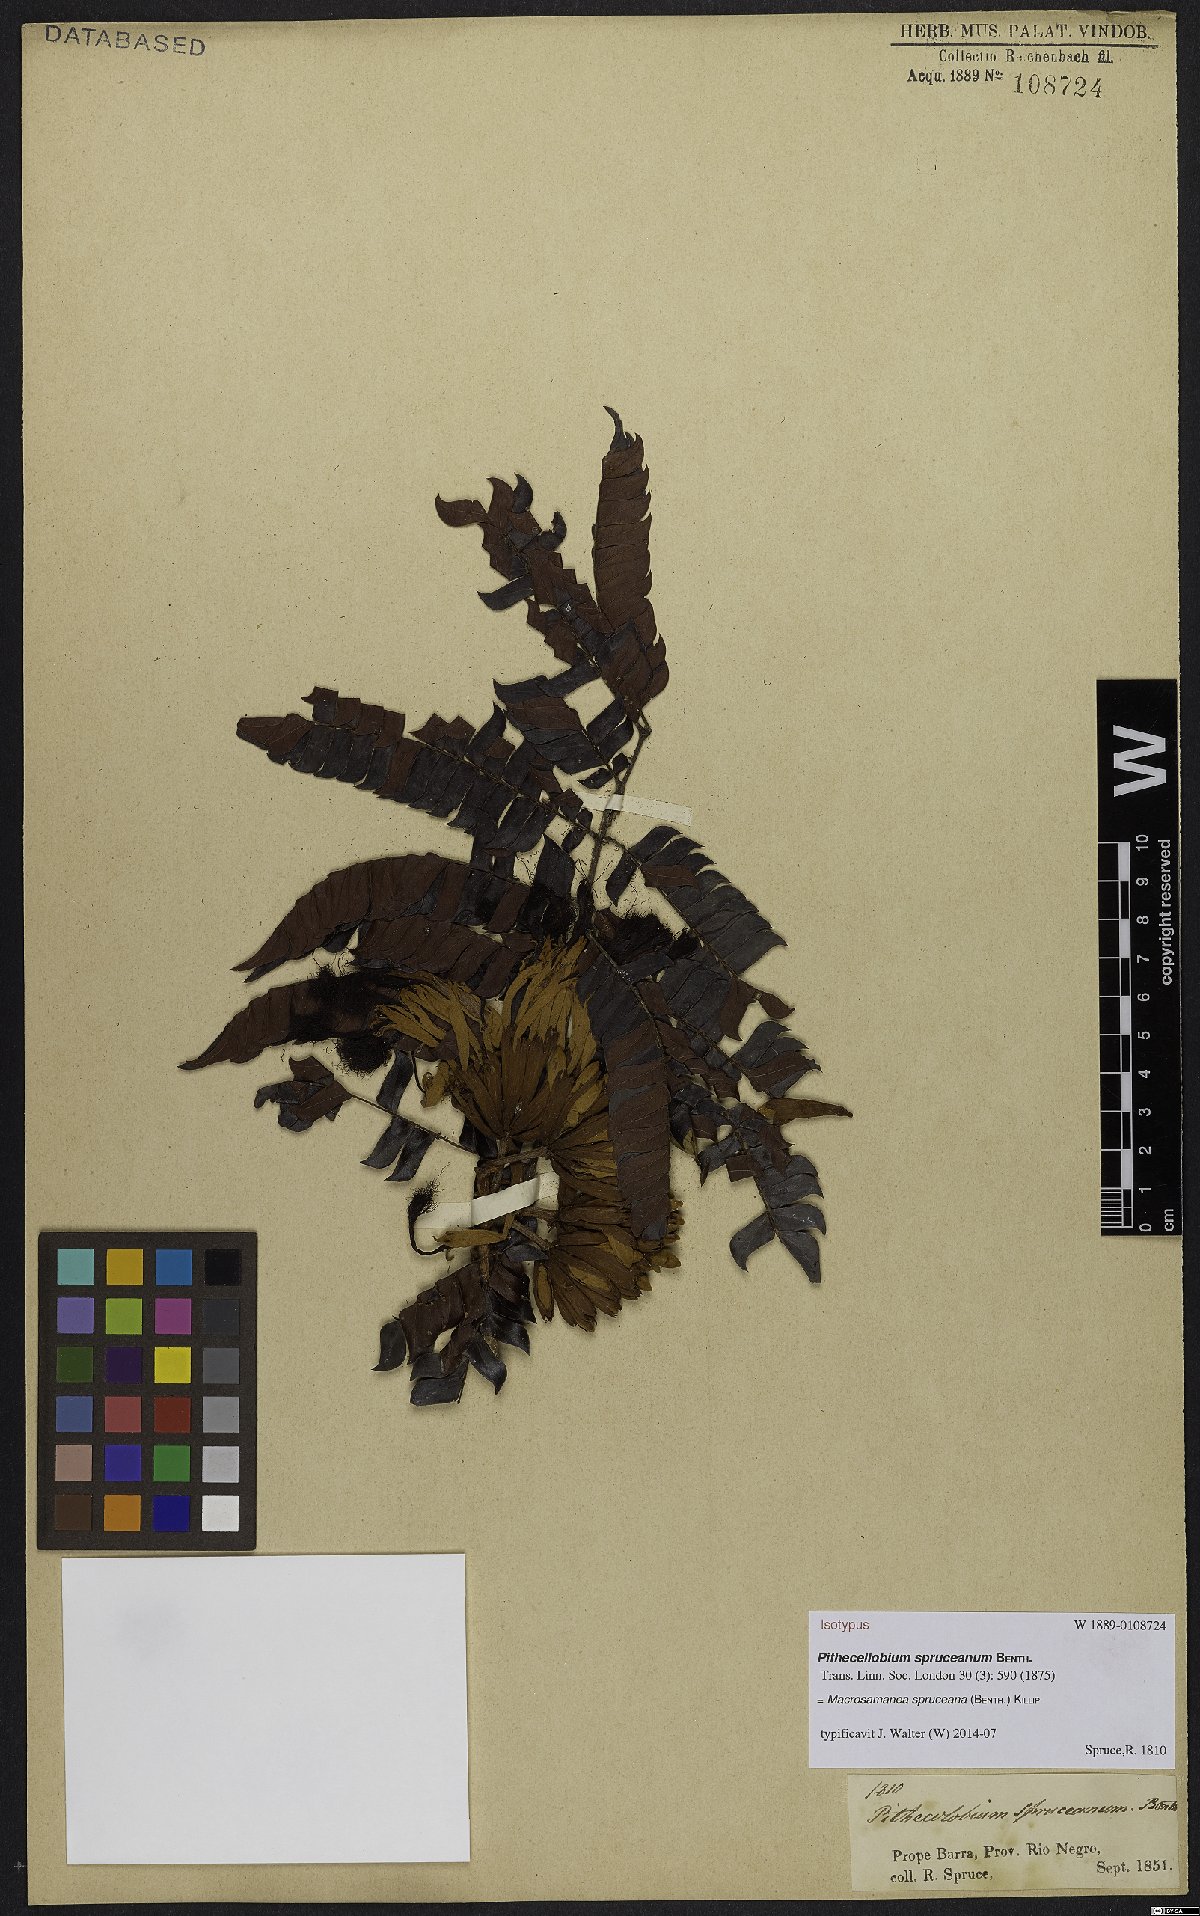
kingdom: Plantae
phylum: Tracheophyta
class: Magnoliopsida
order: Fabales
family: Fabaceae
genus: Macrosamanea
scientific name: Macrosamanea spruceana
